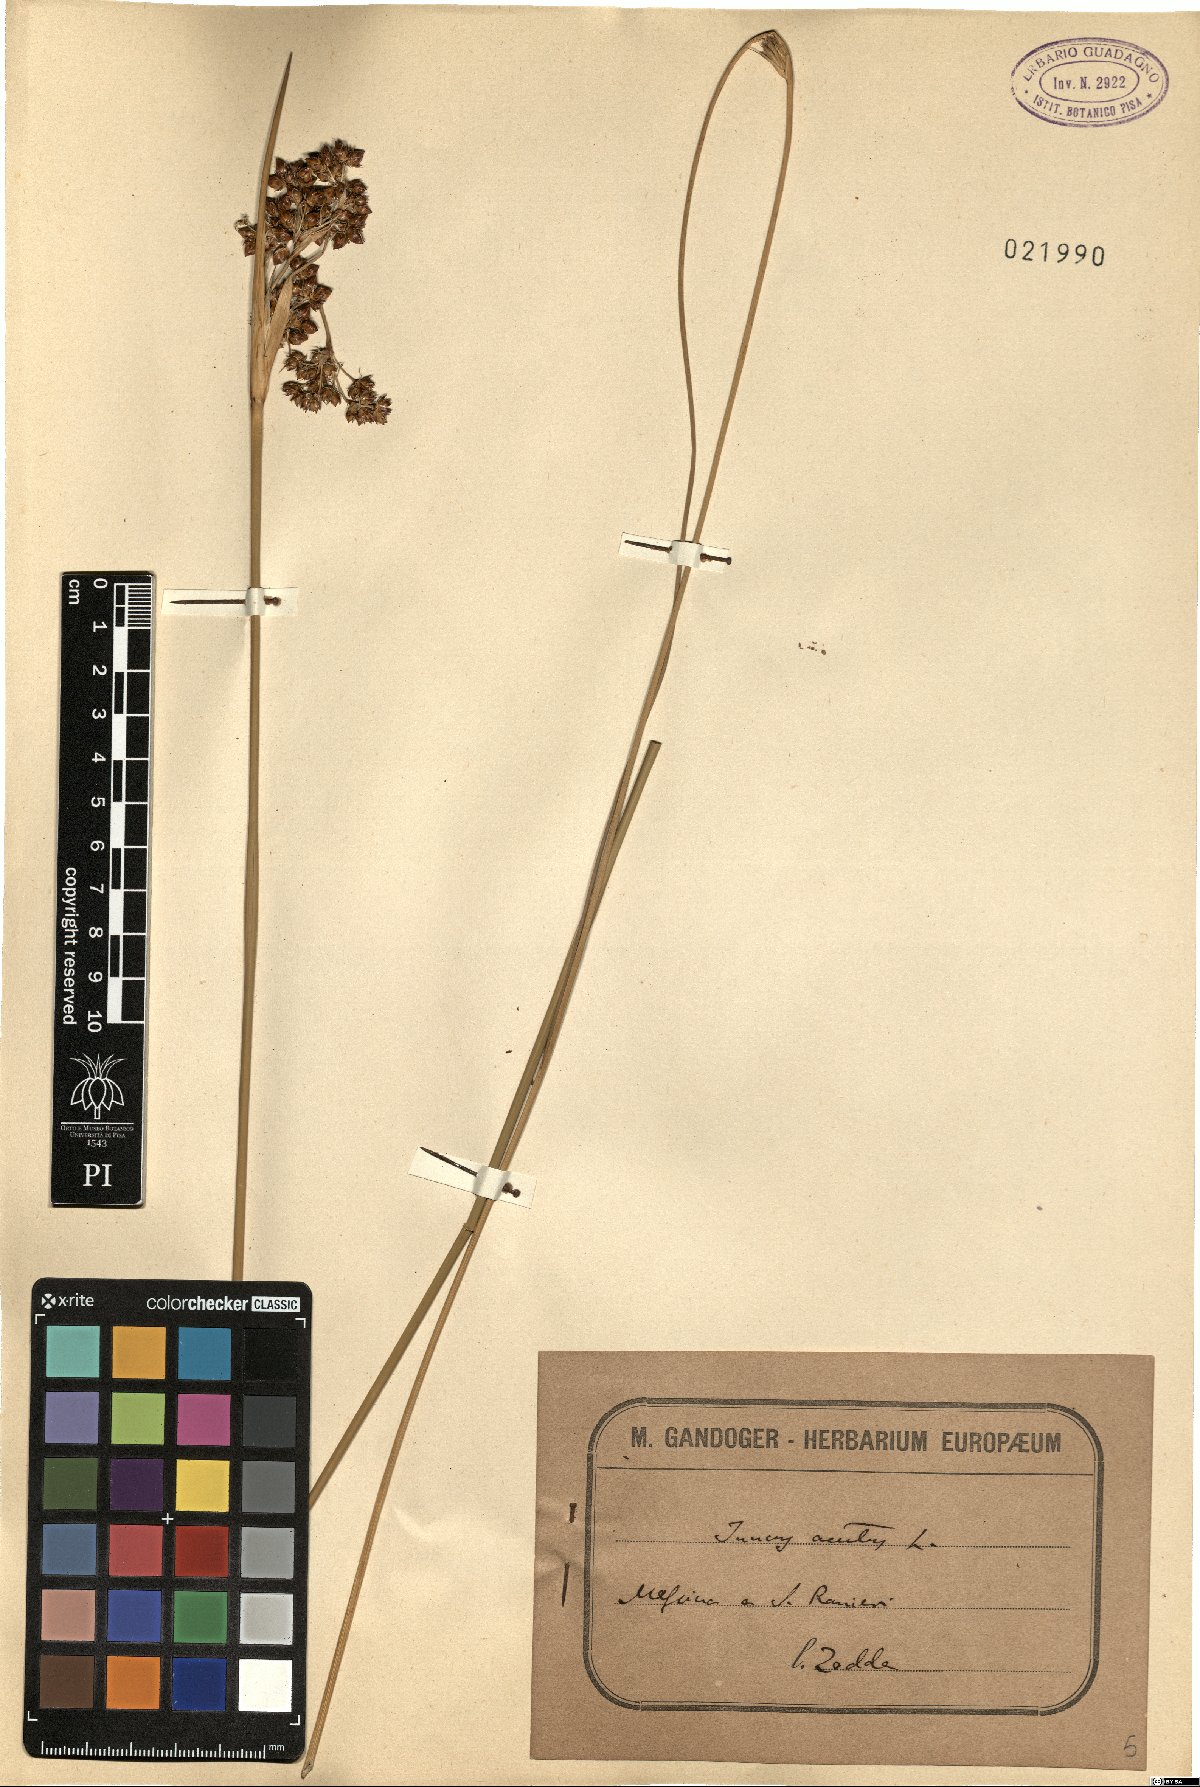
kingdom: Plantae
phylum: Tracheophyta
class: Liliopsida
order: Poales
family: Juncaceae
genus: Juncus
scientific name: Juncus acutus
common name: Sharp rush
